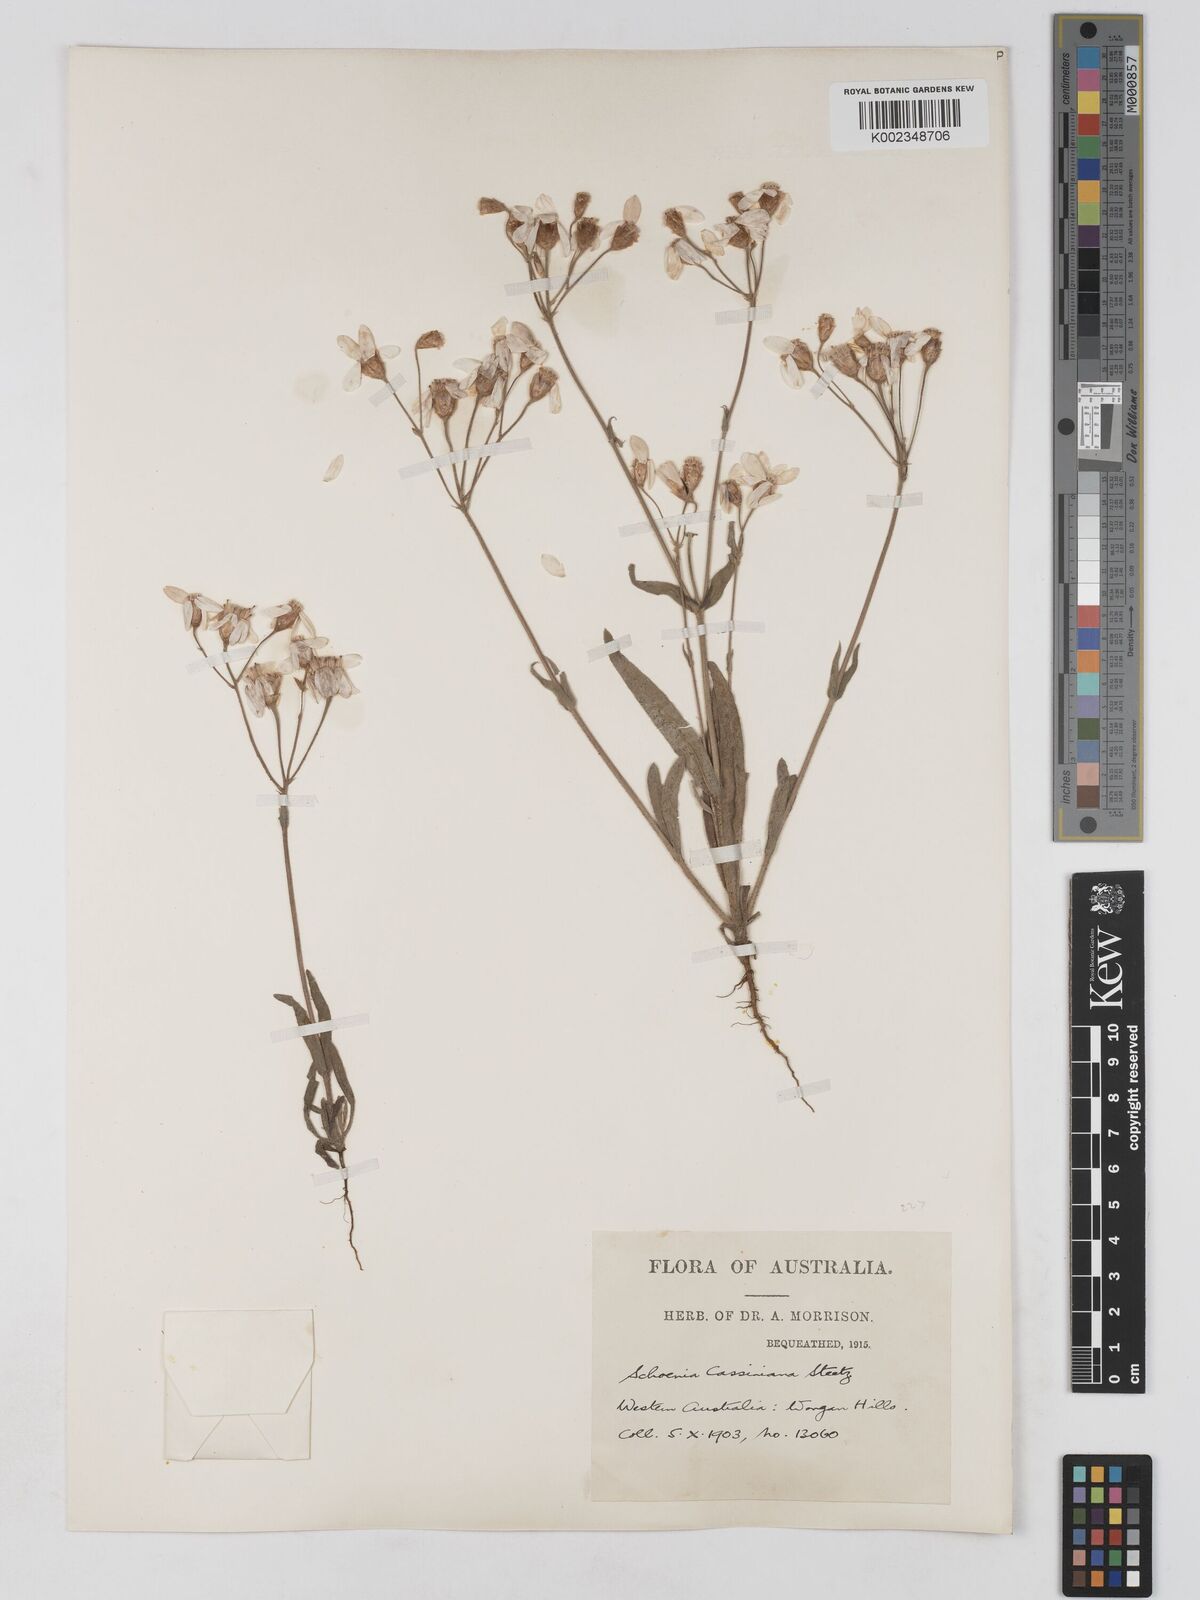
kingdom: Plantae
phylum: Tracheophyta
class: Magnoliopsida
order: Asterales
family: Asteraceae
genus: Schoenia
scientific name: Schoenia cassiniana
